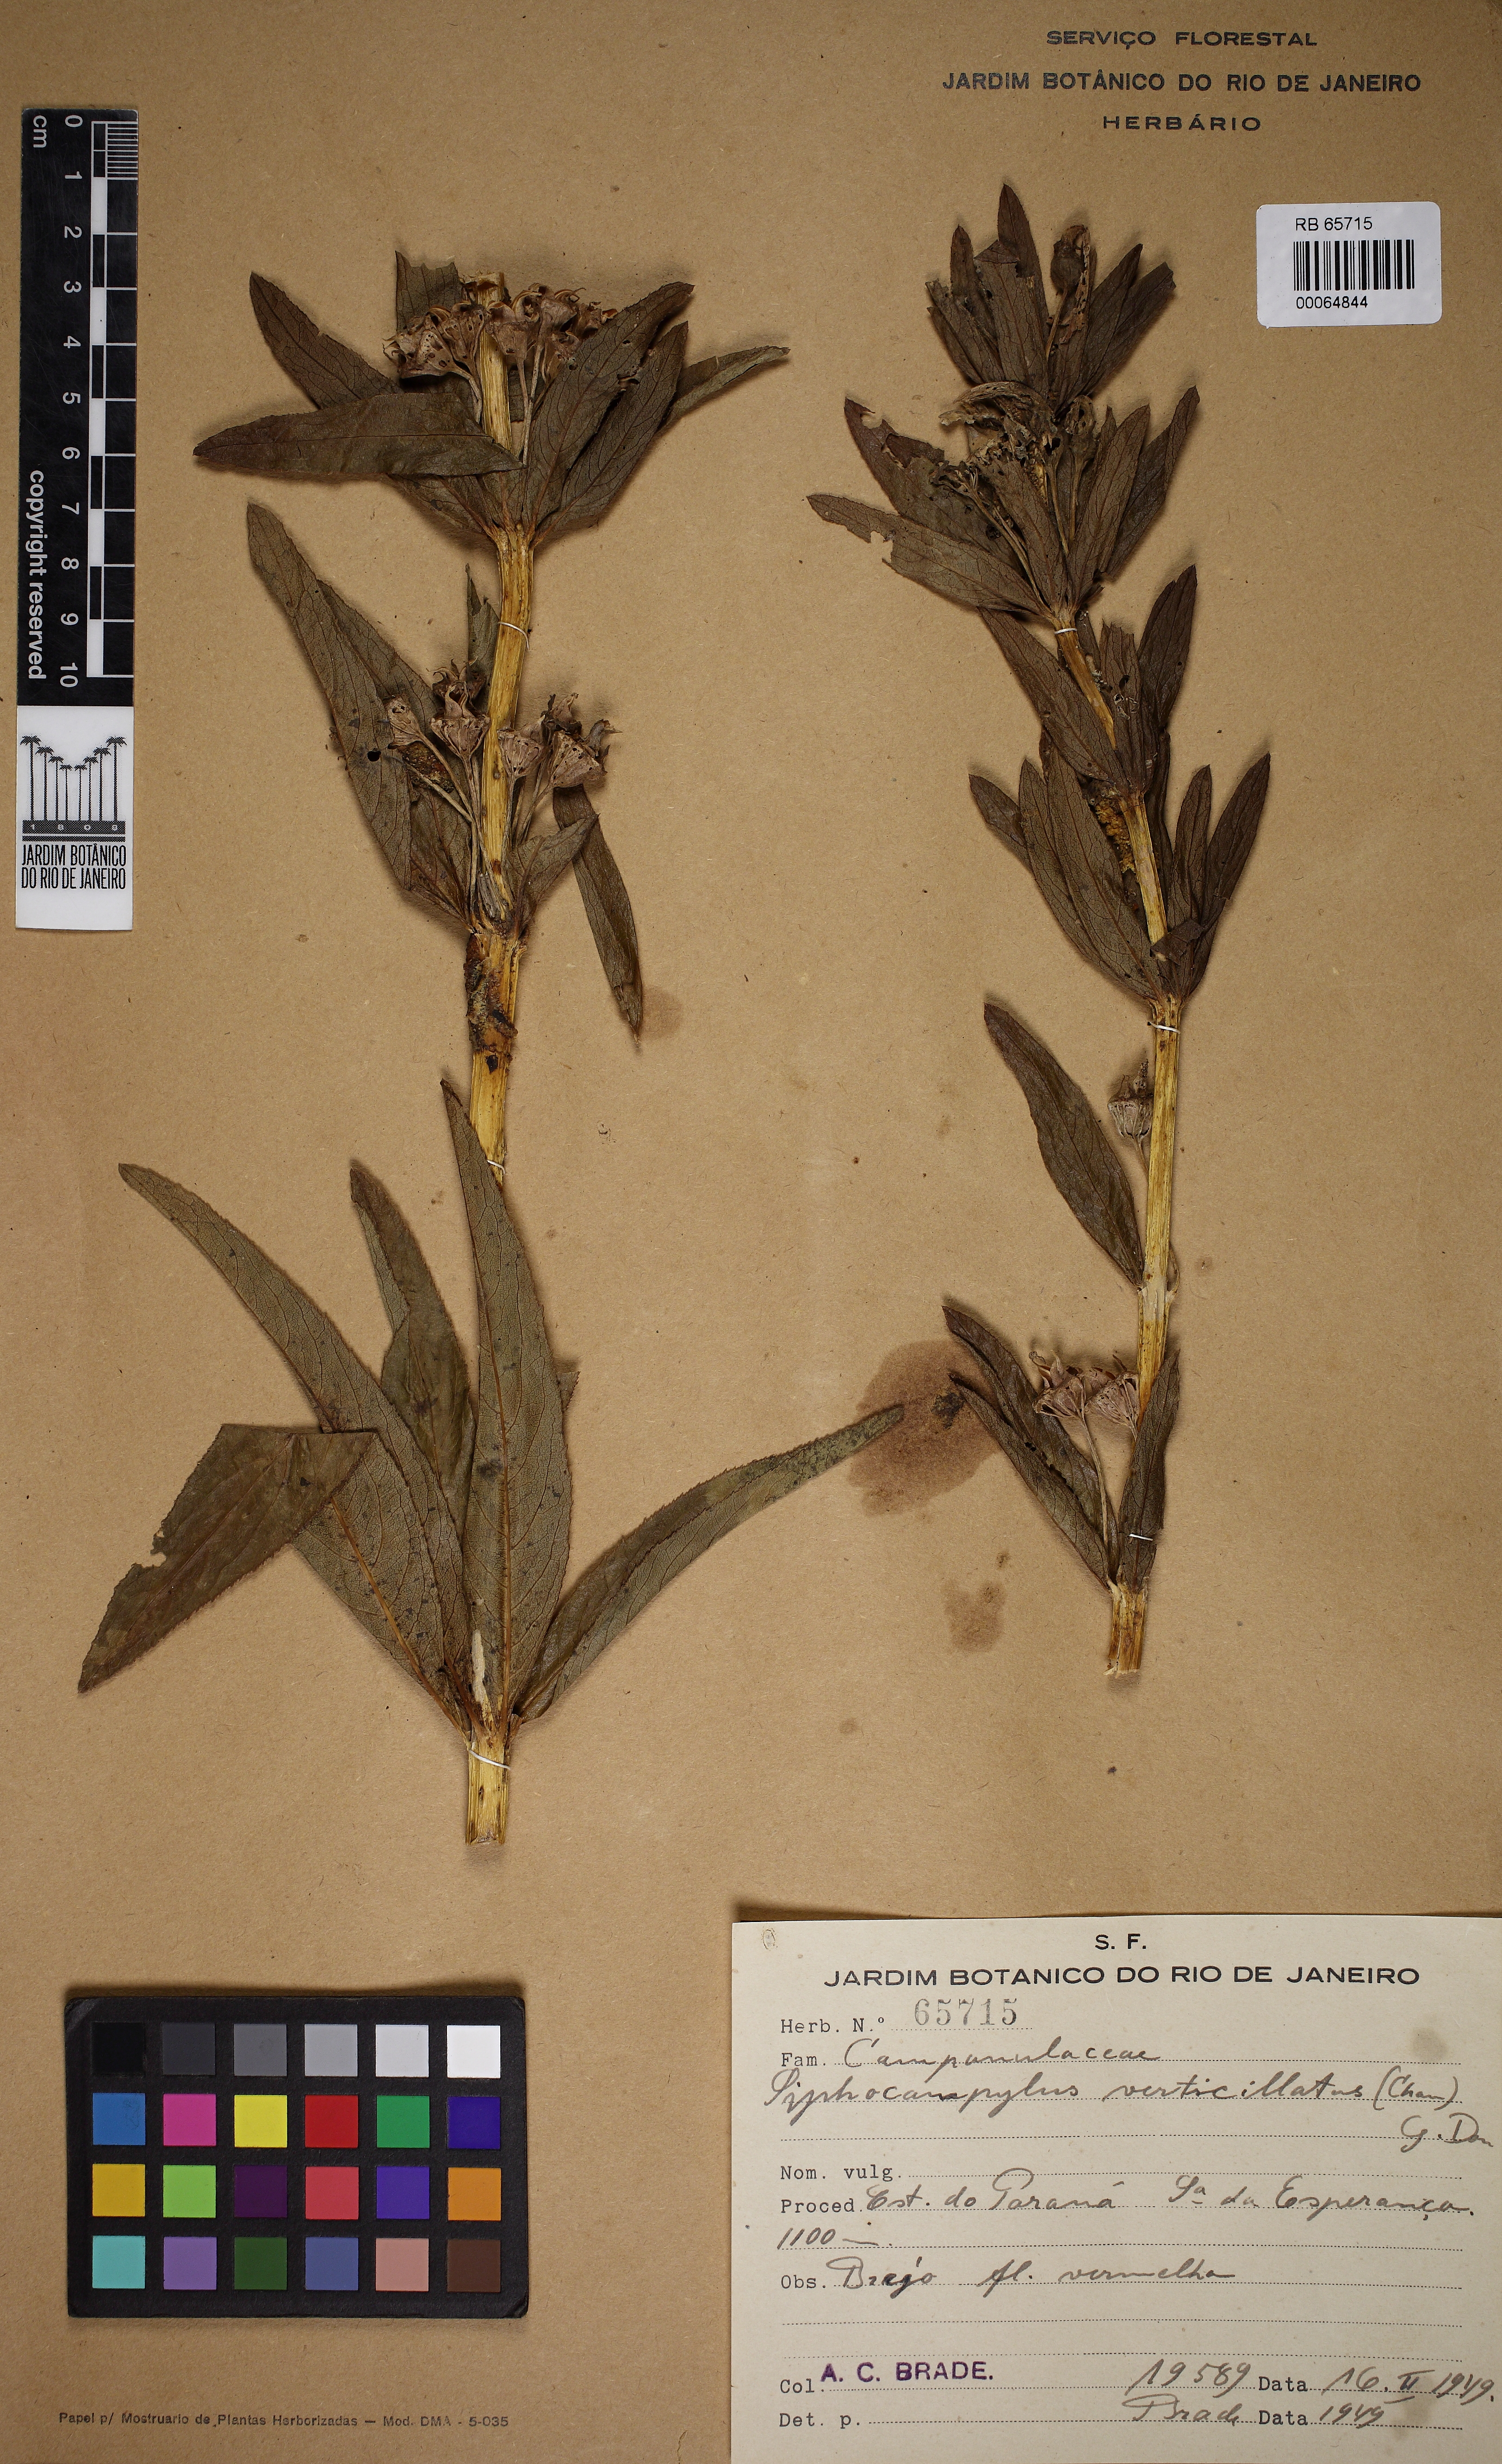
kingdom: Plantae
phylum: Tracheophyta
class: Magnoliopsida
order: Asterales
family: Campanulaceae
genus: Siphocampylus
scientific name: Siphocampylus
